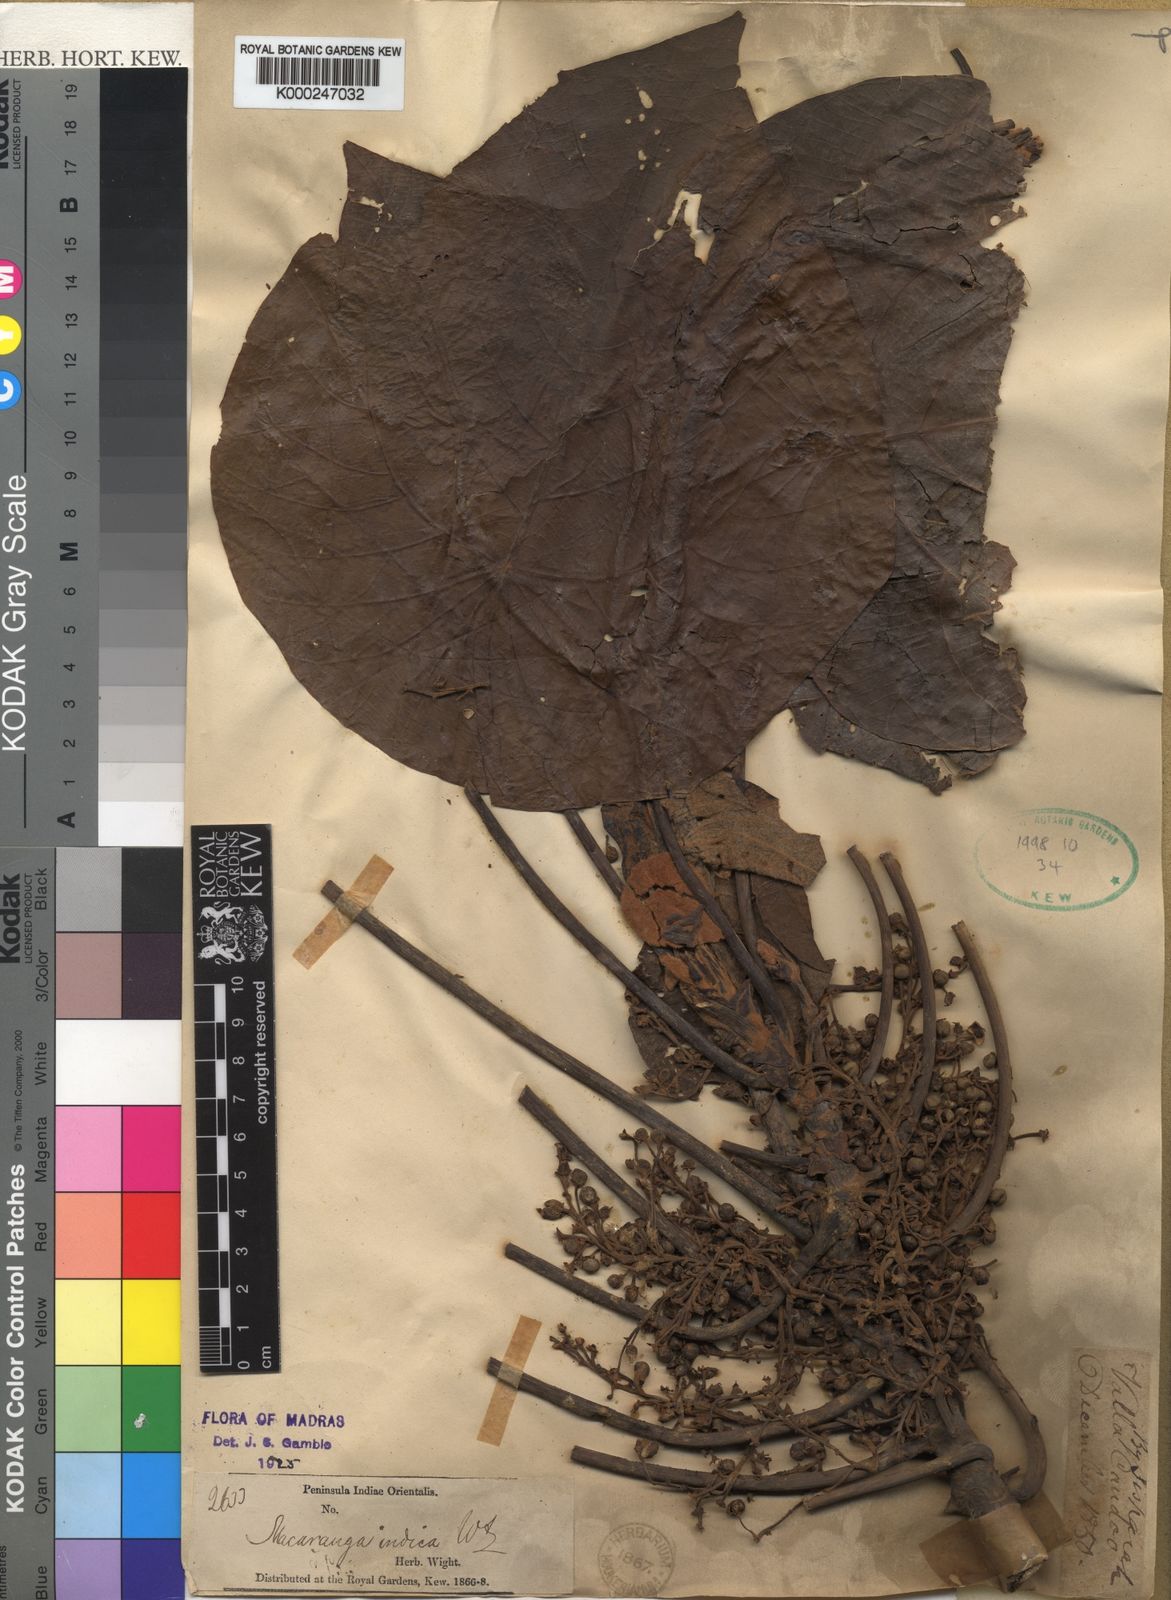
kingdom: Plantae
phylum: Tracheophyta
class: Magnoliopsida
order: Malpighiales
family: Euphorbiaceae
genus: Macaranga
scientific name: Macaranga indica
